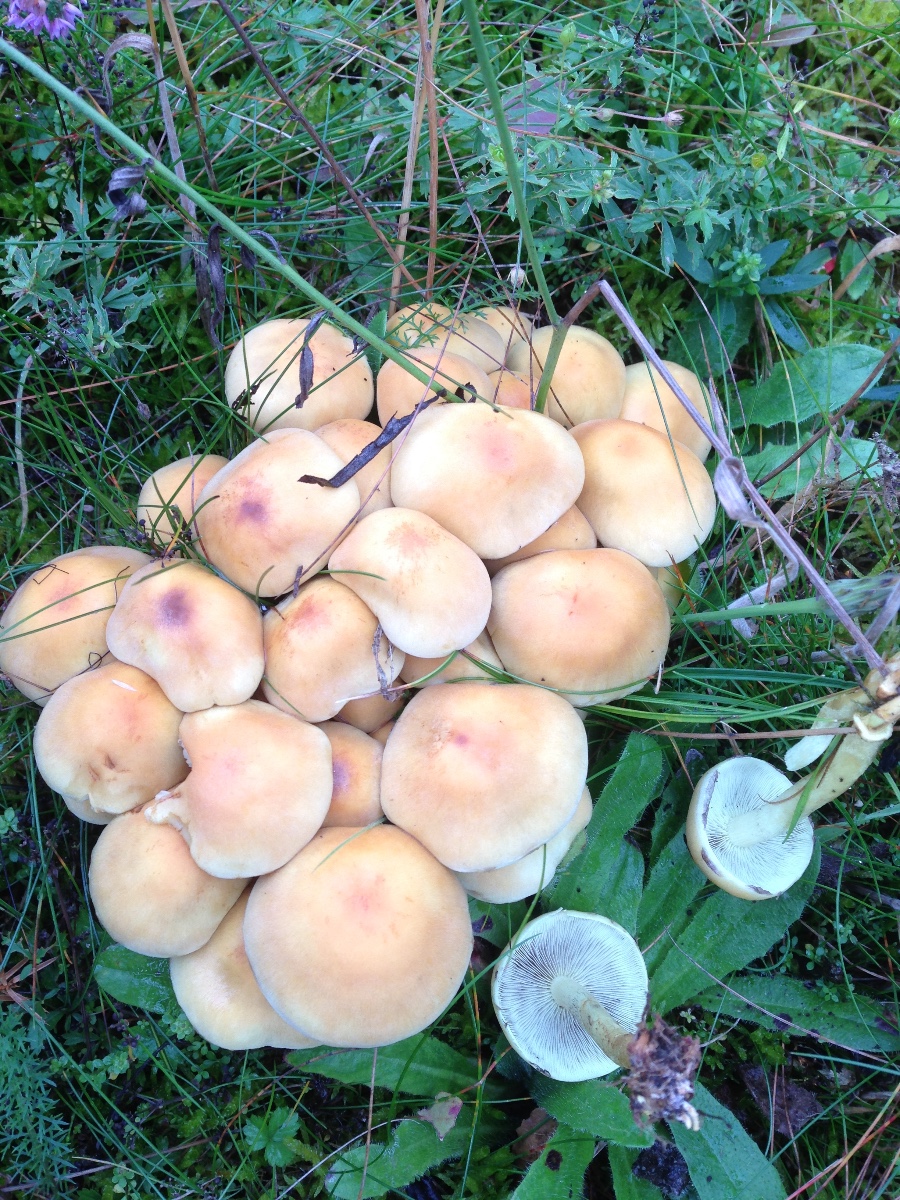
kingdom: Fungi
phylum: Basidiomycota
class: Agaricomycetes
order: Agaricales
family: Strophariaceae
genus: Hypholoma
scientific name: Hypholoma fasciculare
